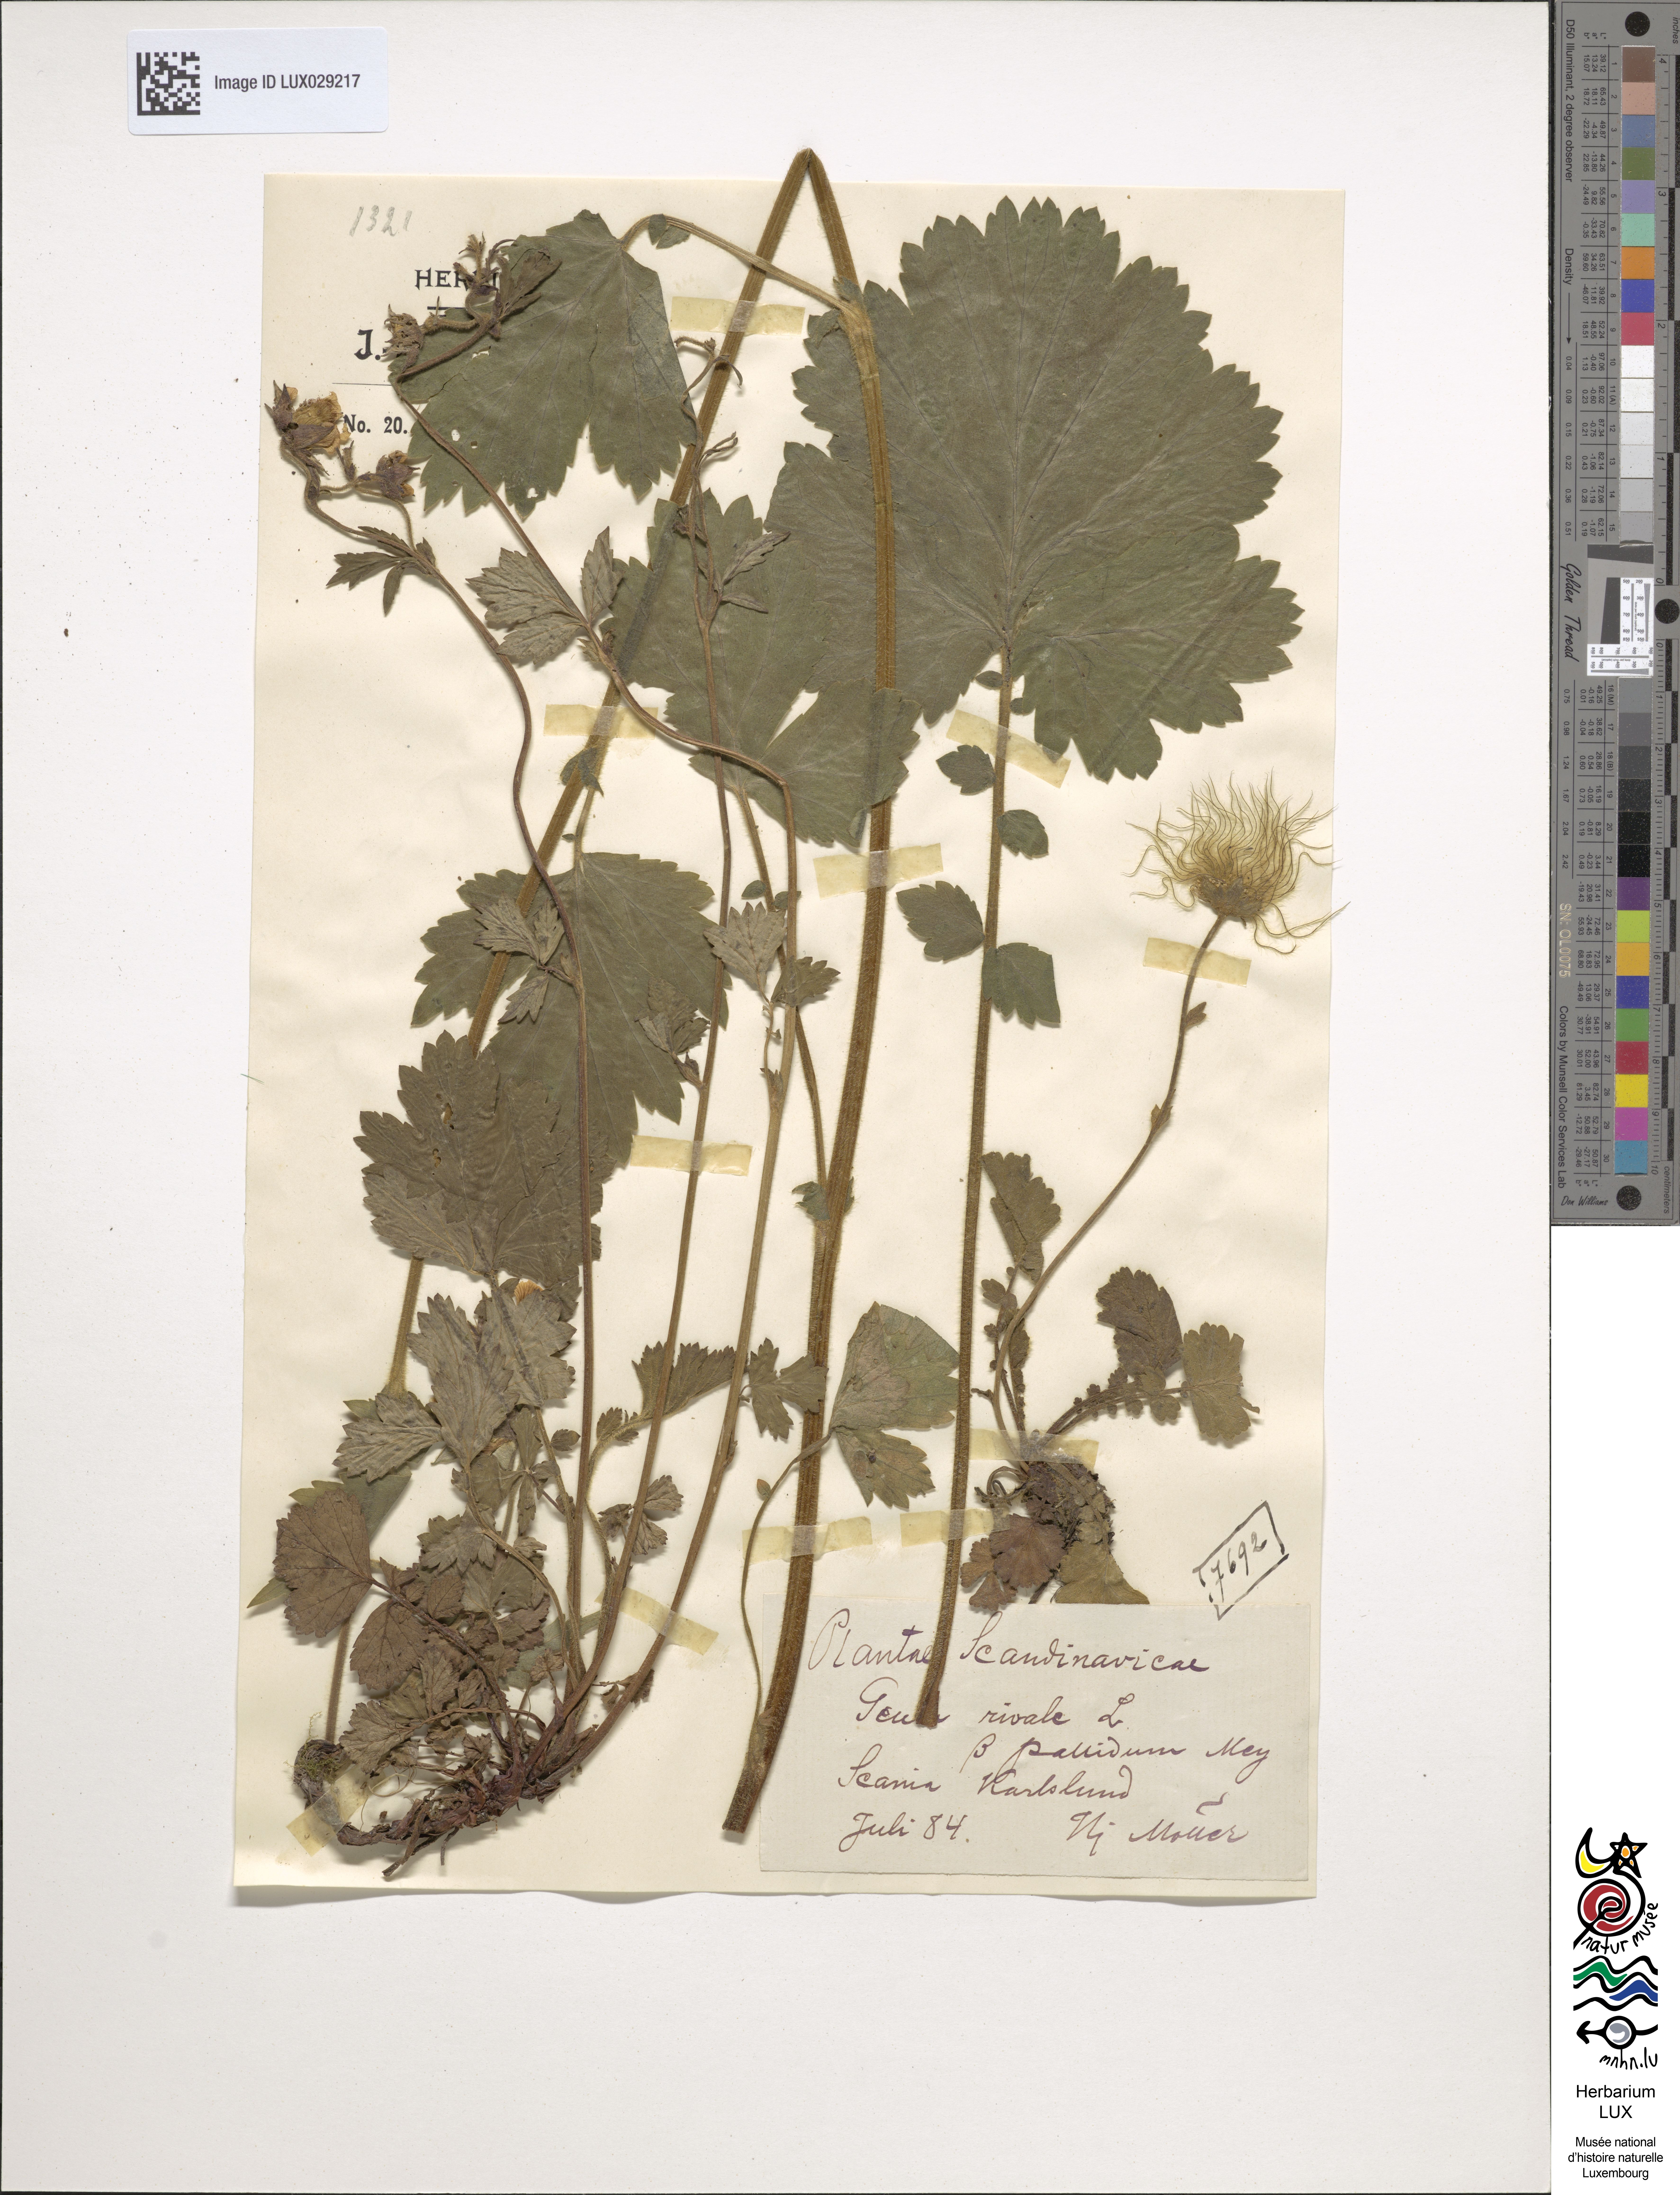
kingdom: Plantae
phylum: Tracheophyta
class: Magnoliopsida
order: Rosales
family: Rosaceae
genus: Geum
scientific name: Geum rivale
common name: Water avens
